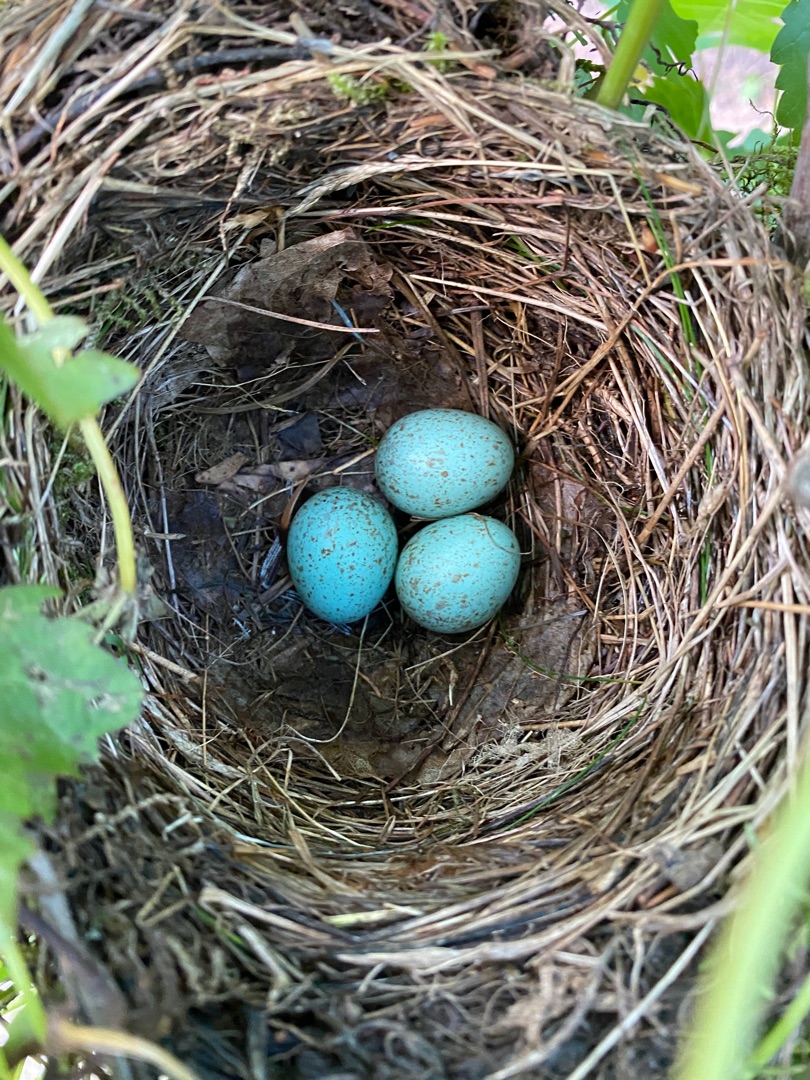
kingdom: Animalia
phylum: Chordata
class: Aves
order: Passeriformes
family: Turdidae
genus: Turdus
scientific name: Turdus merula
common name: Solsort
